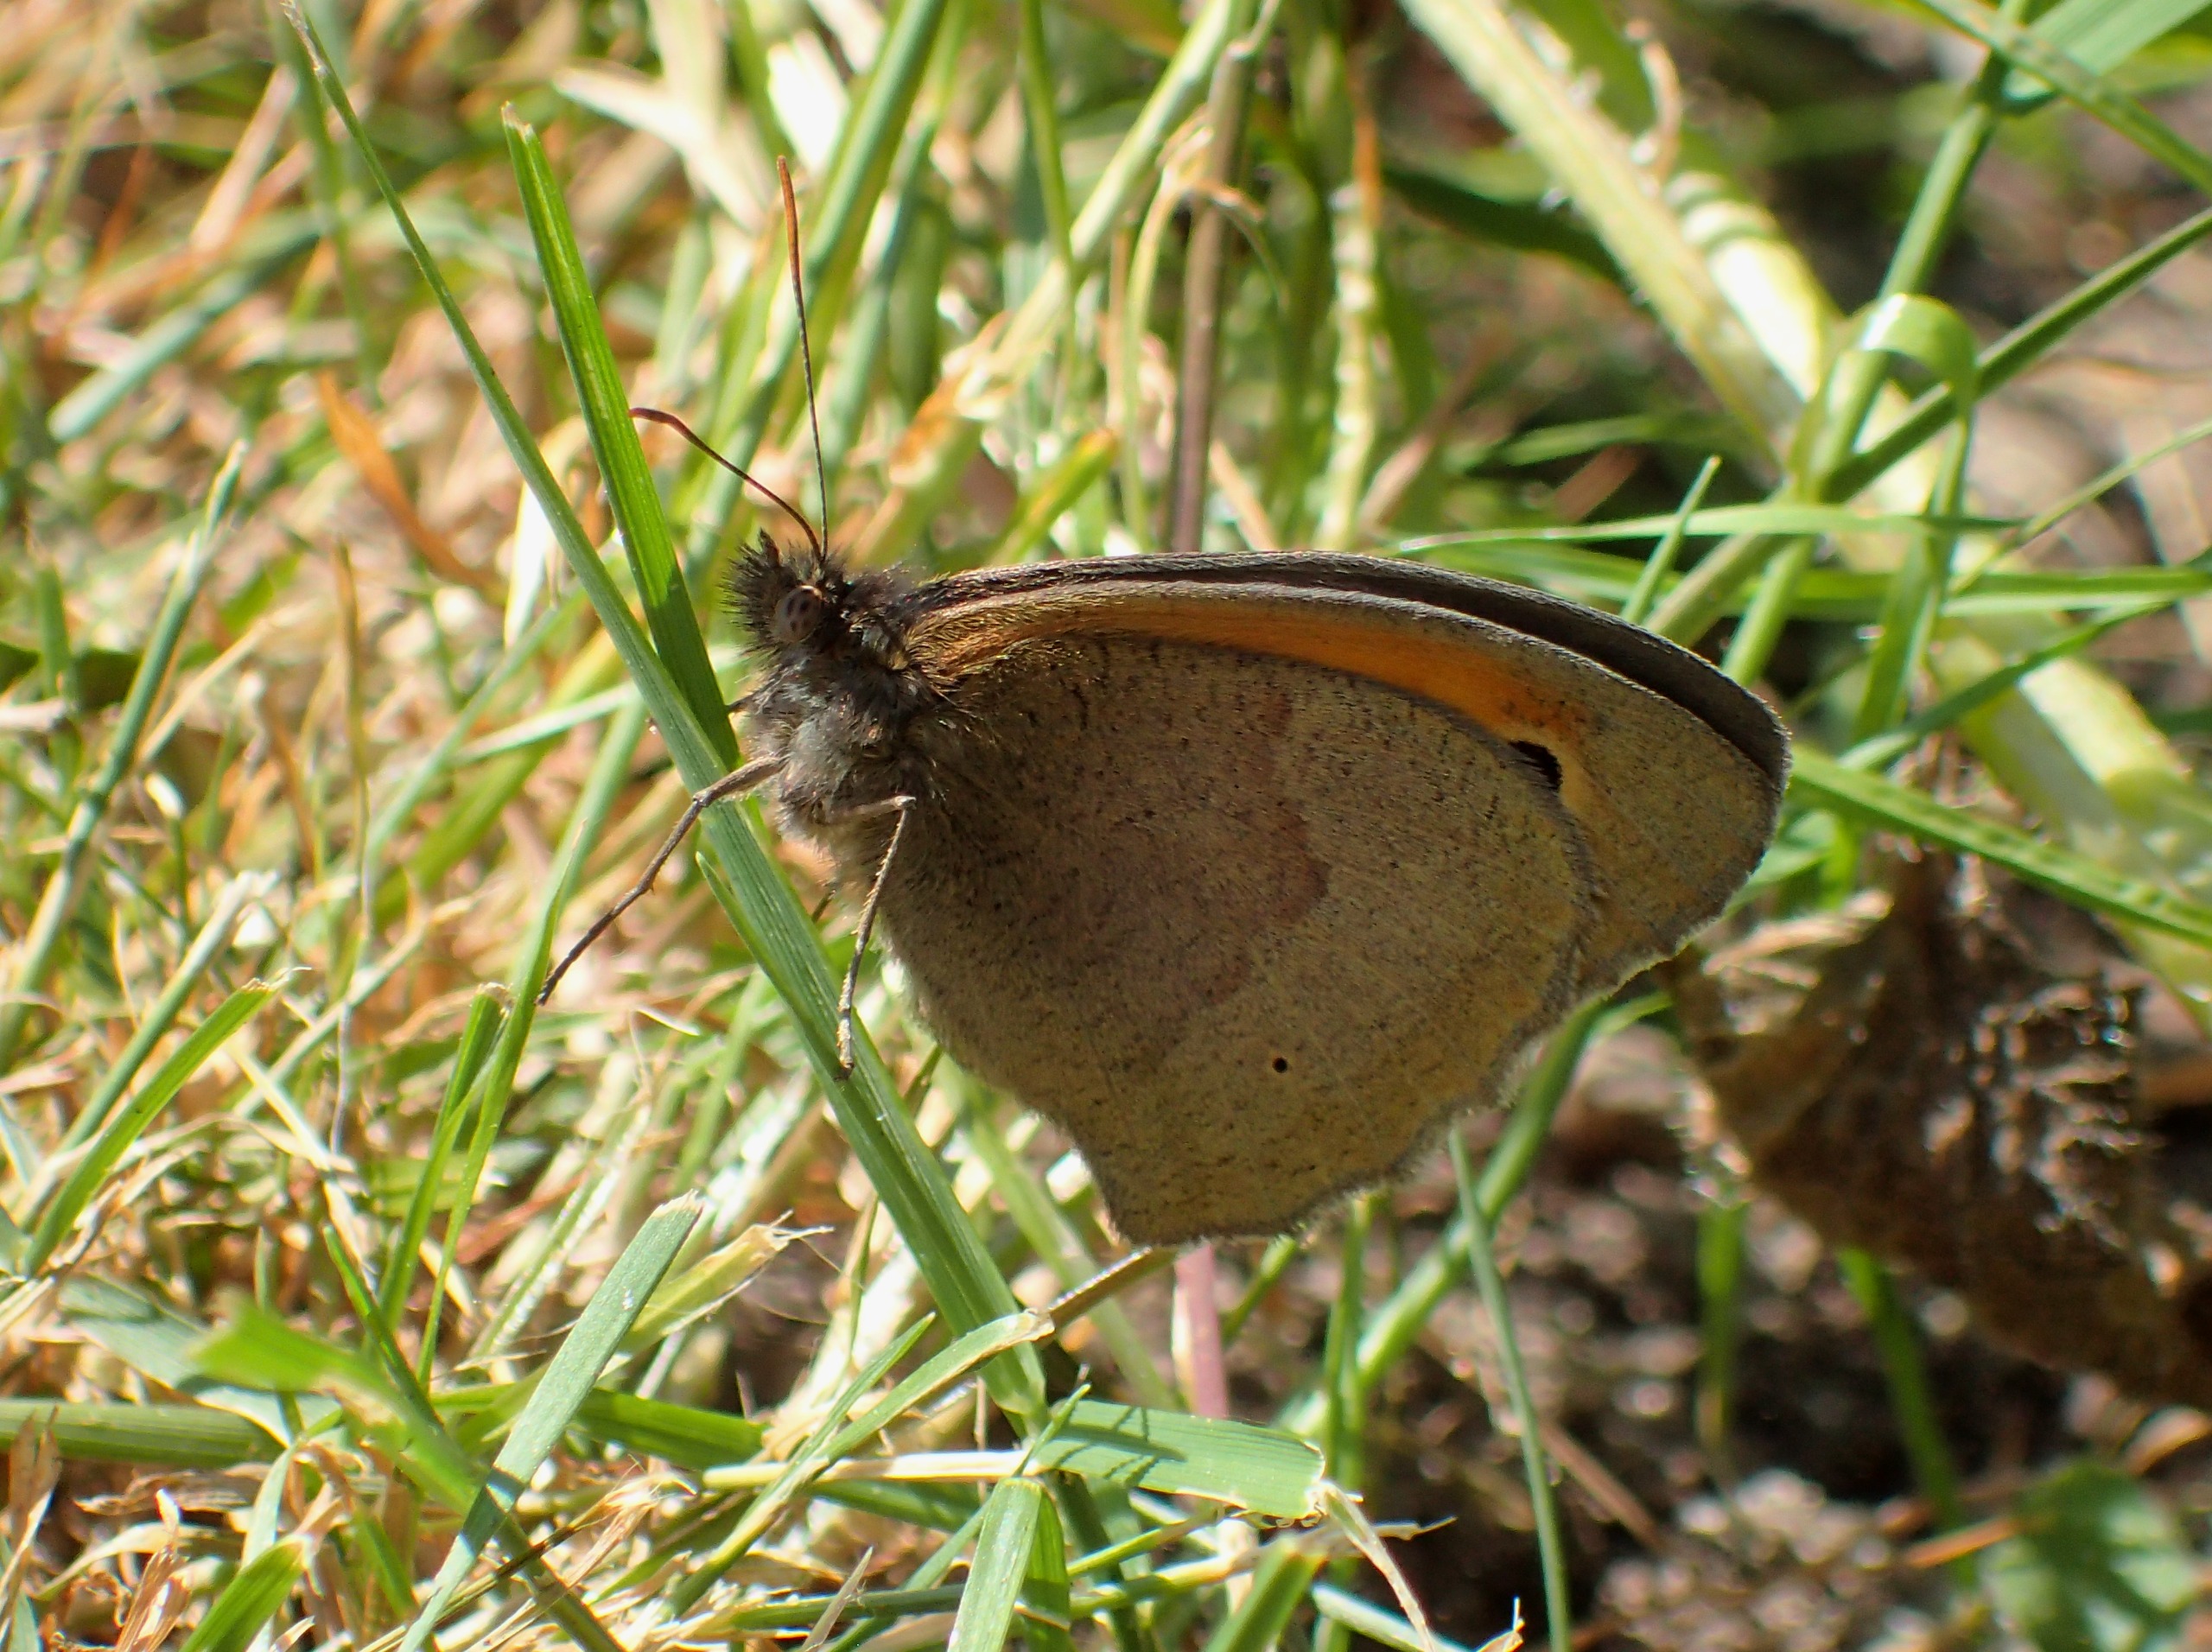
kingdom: Animalia
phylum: Arthropoda
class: Insecta
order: Lepidoptera
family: Nymphalidae
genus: Maniola
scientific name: Maniola jurtina
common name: Græsrandøje
